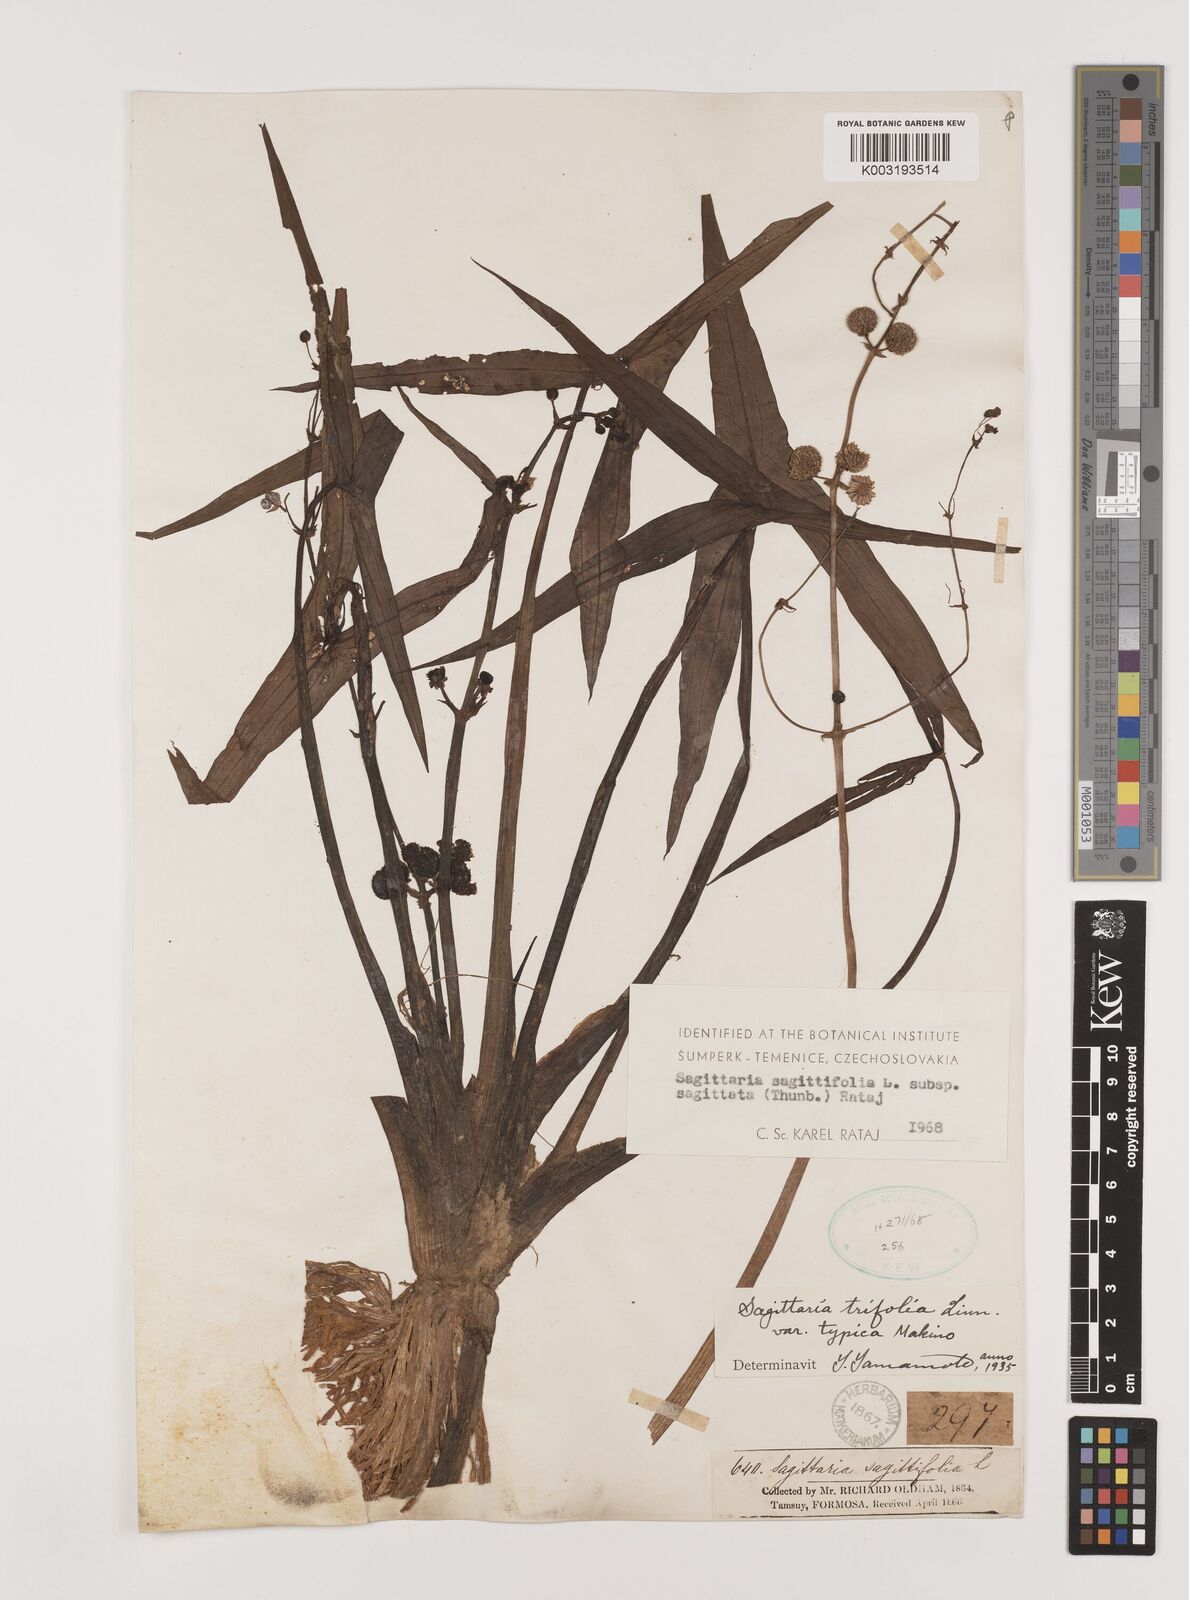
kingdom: Plantae
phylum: Tracheophyta
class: Liliopsida
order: Alismatales
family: Alismataceae
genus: Sagittaria
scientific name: Sagittaria sagittifolia
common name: Arrowhead
